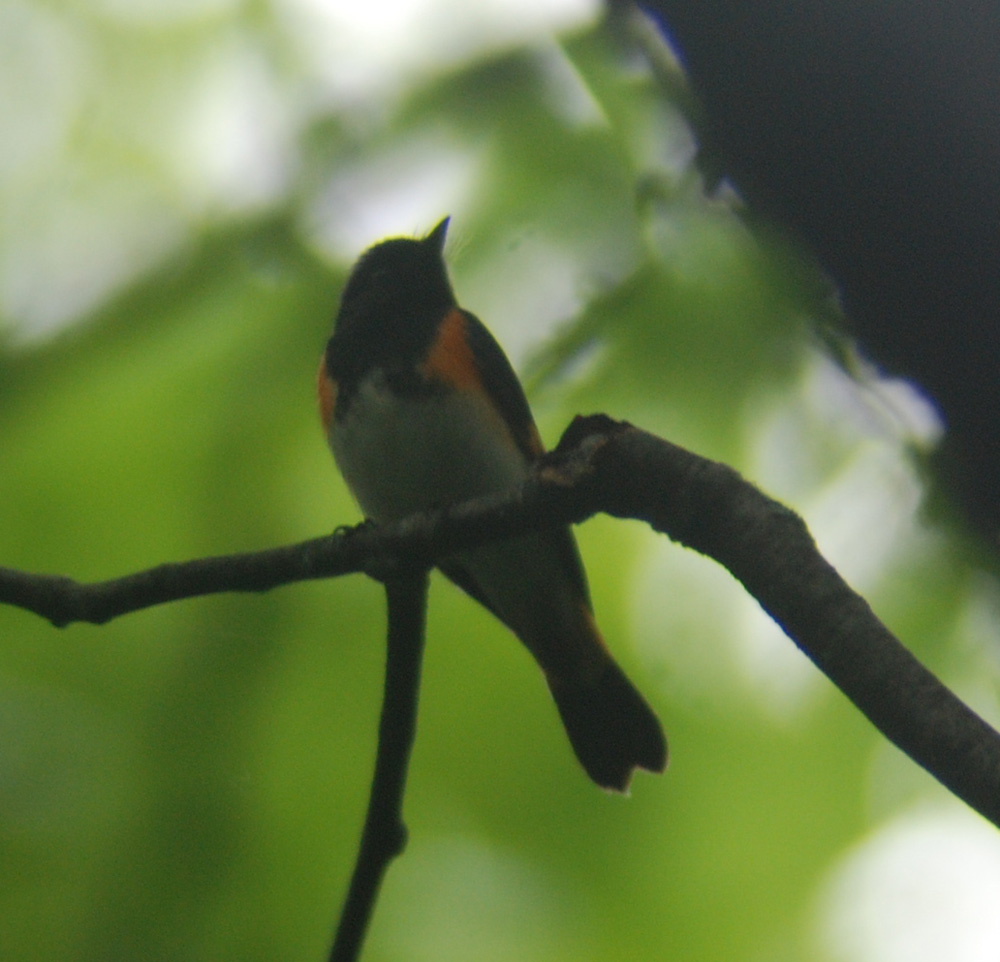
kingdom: Animalia
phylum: Chordata
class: Aves
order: Passeriformes
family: Parulidae
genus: Setophaga
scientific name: Setophaga ruticilla
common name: American redstart
